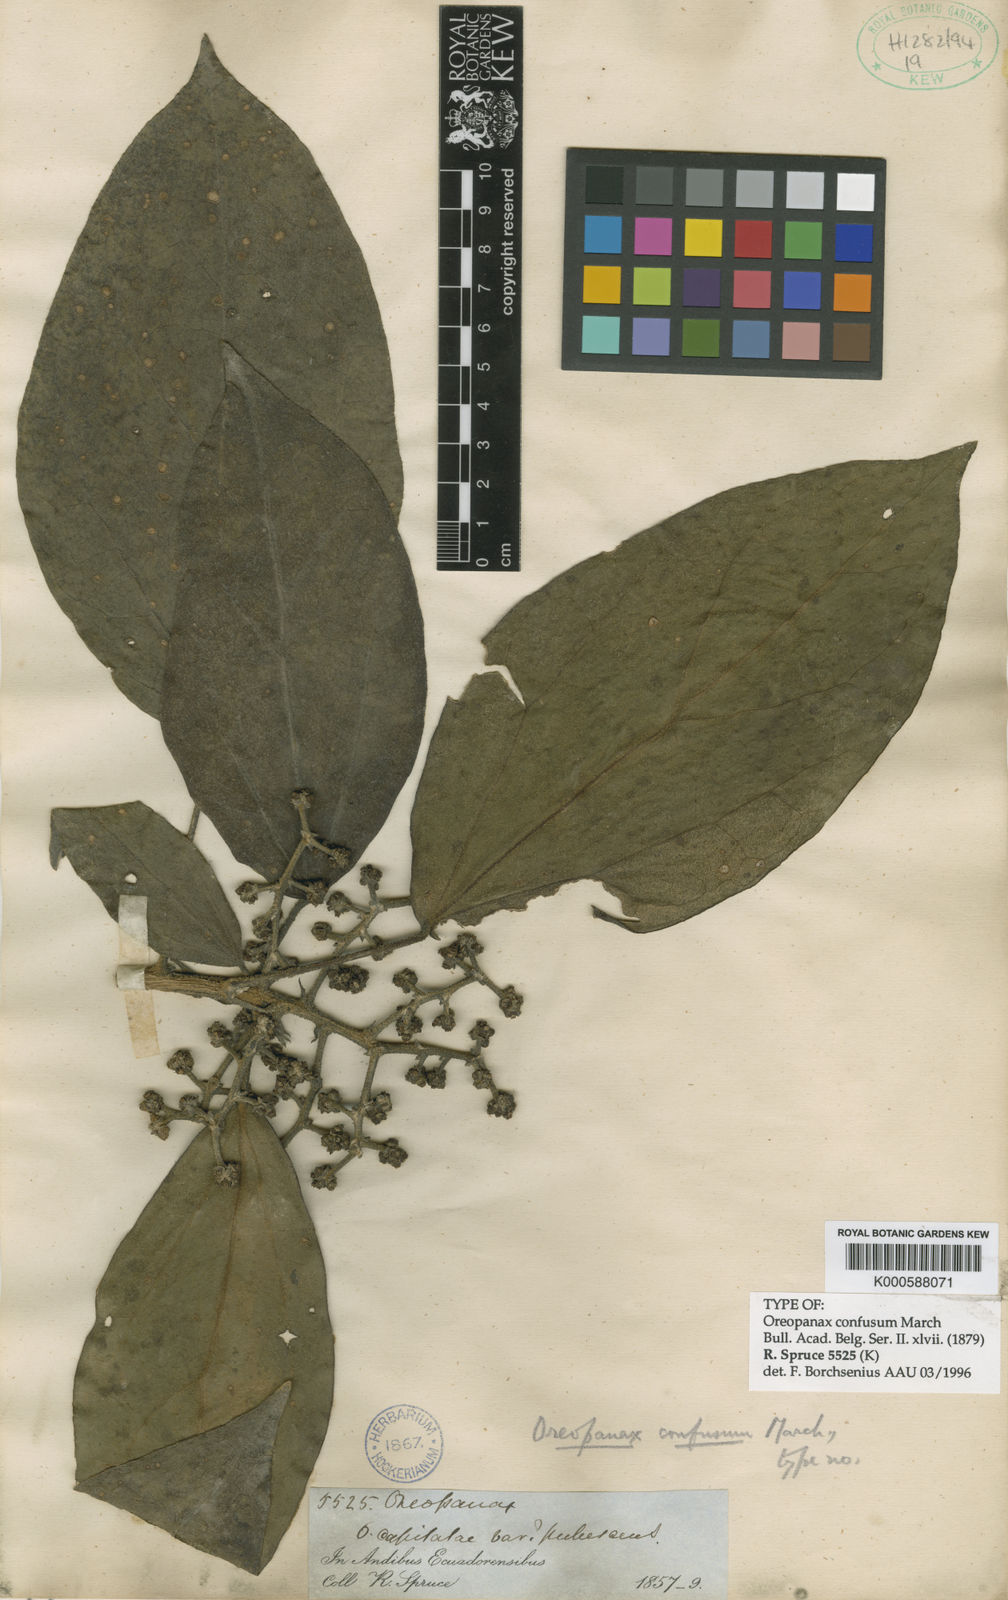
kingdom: Plantae
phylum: Tracheophyta
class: Magnoliopsida
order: Apiales
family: Araliaceae
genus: Oreopanax
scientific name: Oreopanax confusus
